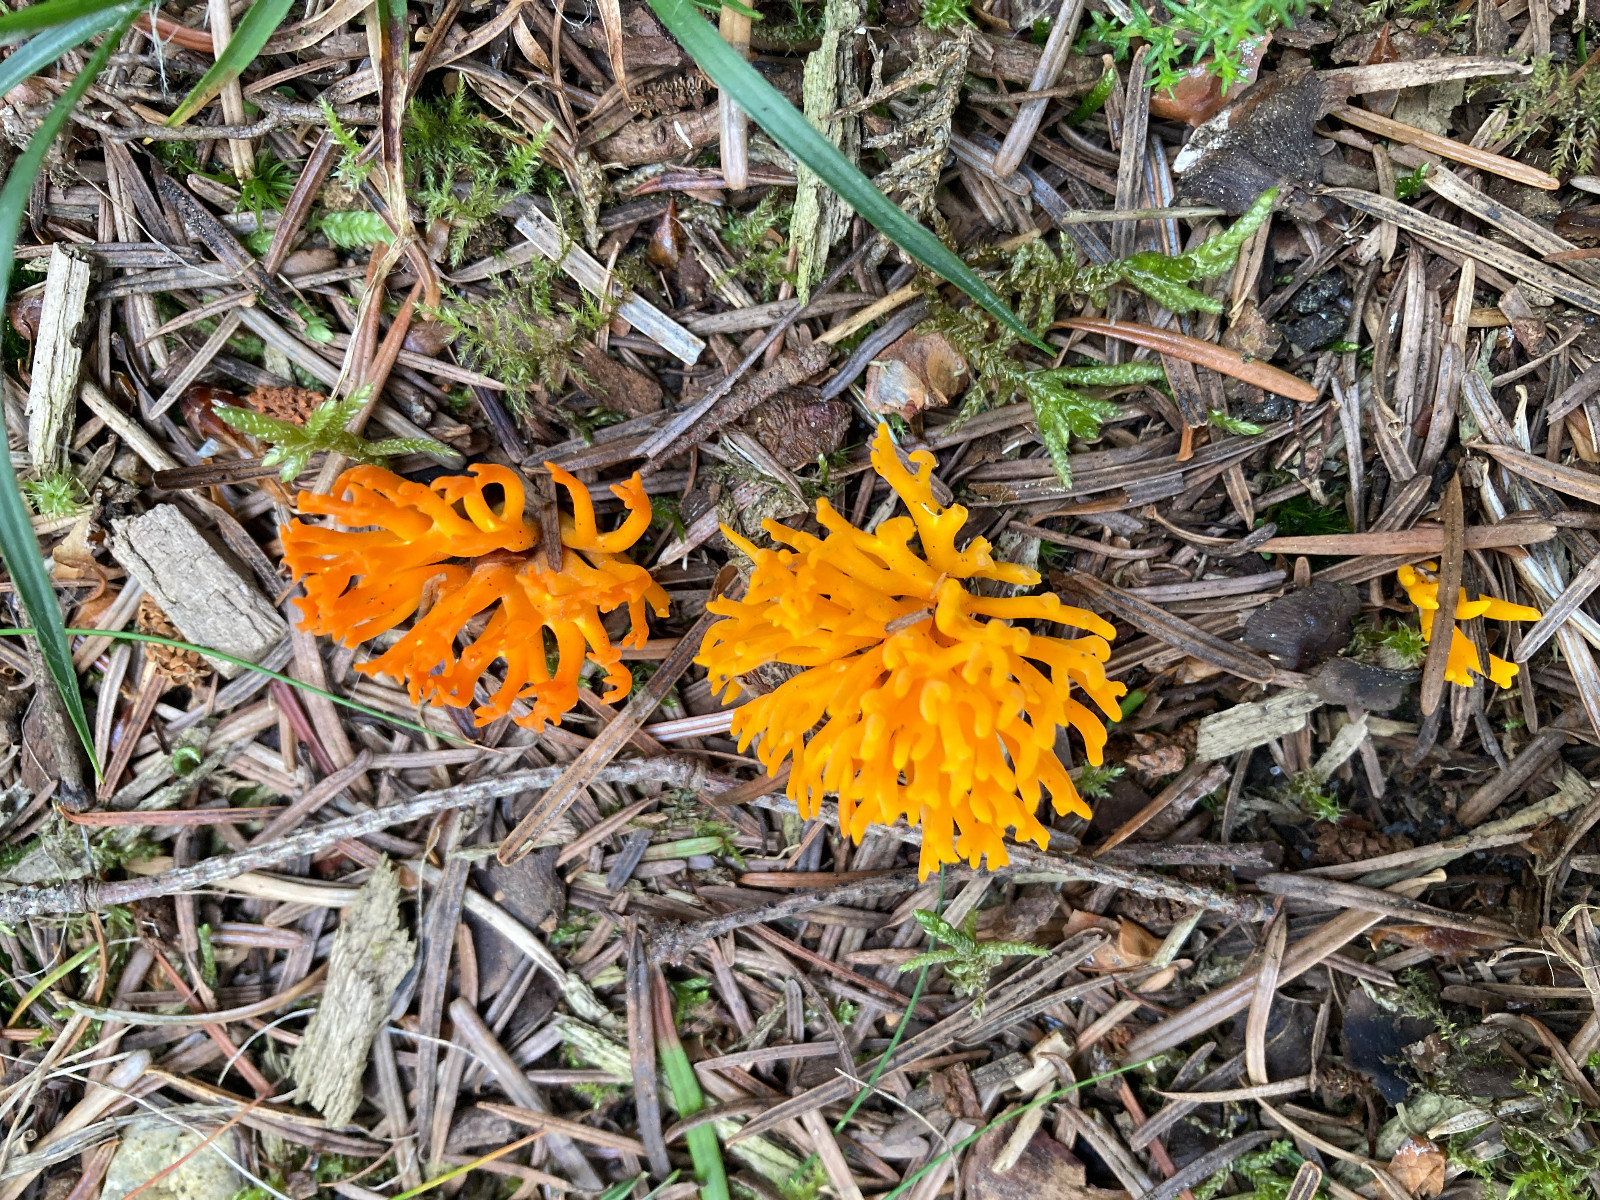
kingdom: Fungi
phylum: Basidiomycota
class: Dacrymycetes
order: Dacrymycetales
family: Dacrymycetaceae
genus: Calocera
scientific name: Calocera viscosa
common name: almindelig guldgaffel
